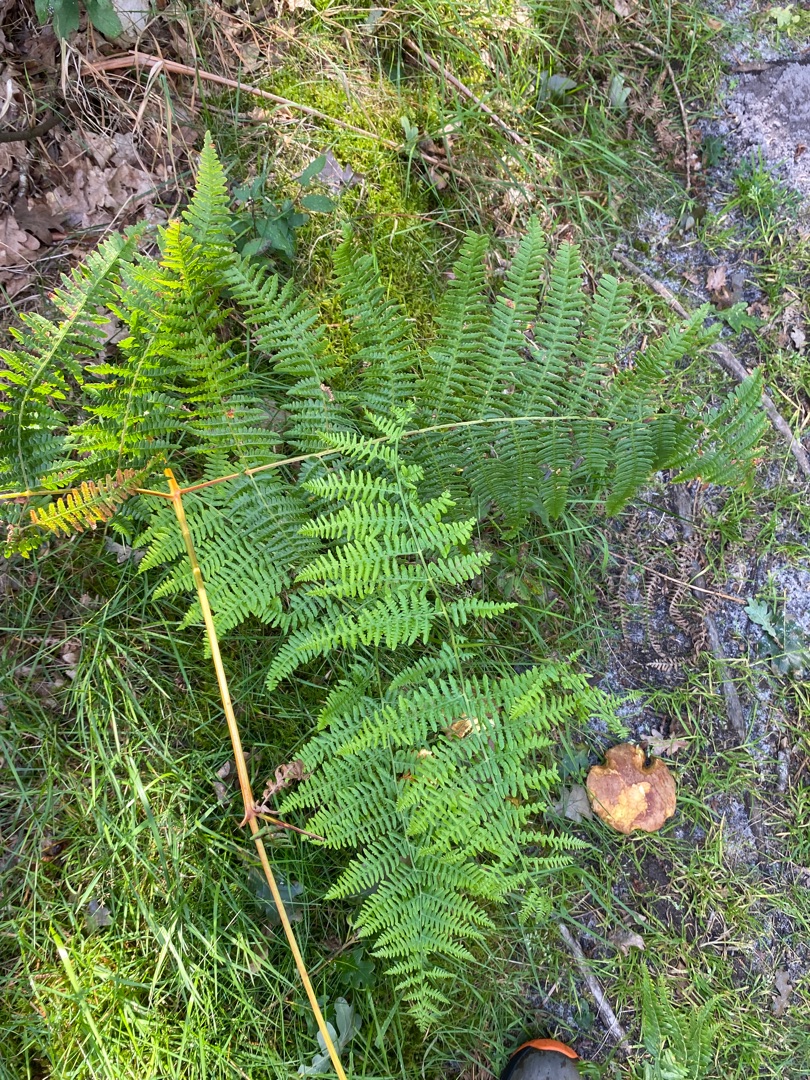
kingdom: Plantae
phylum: Tracheophyta
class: Polypodiopsida
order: Polypodiales
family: Dennstaedtiaceae
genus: Pteridium
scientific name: Pteridium aquilinum
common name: Ørnebregne
